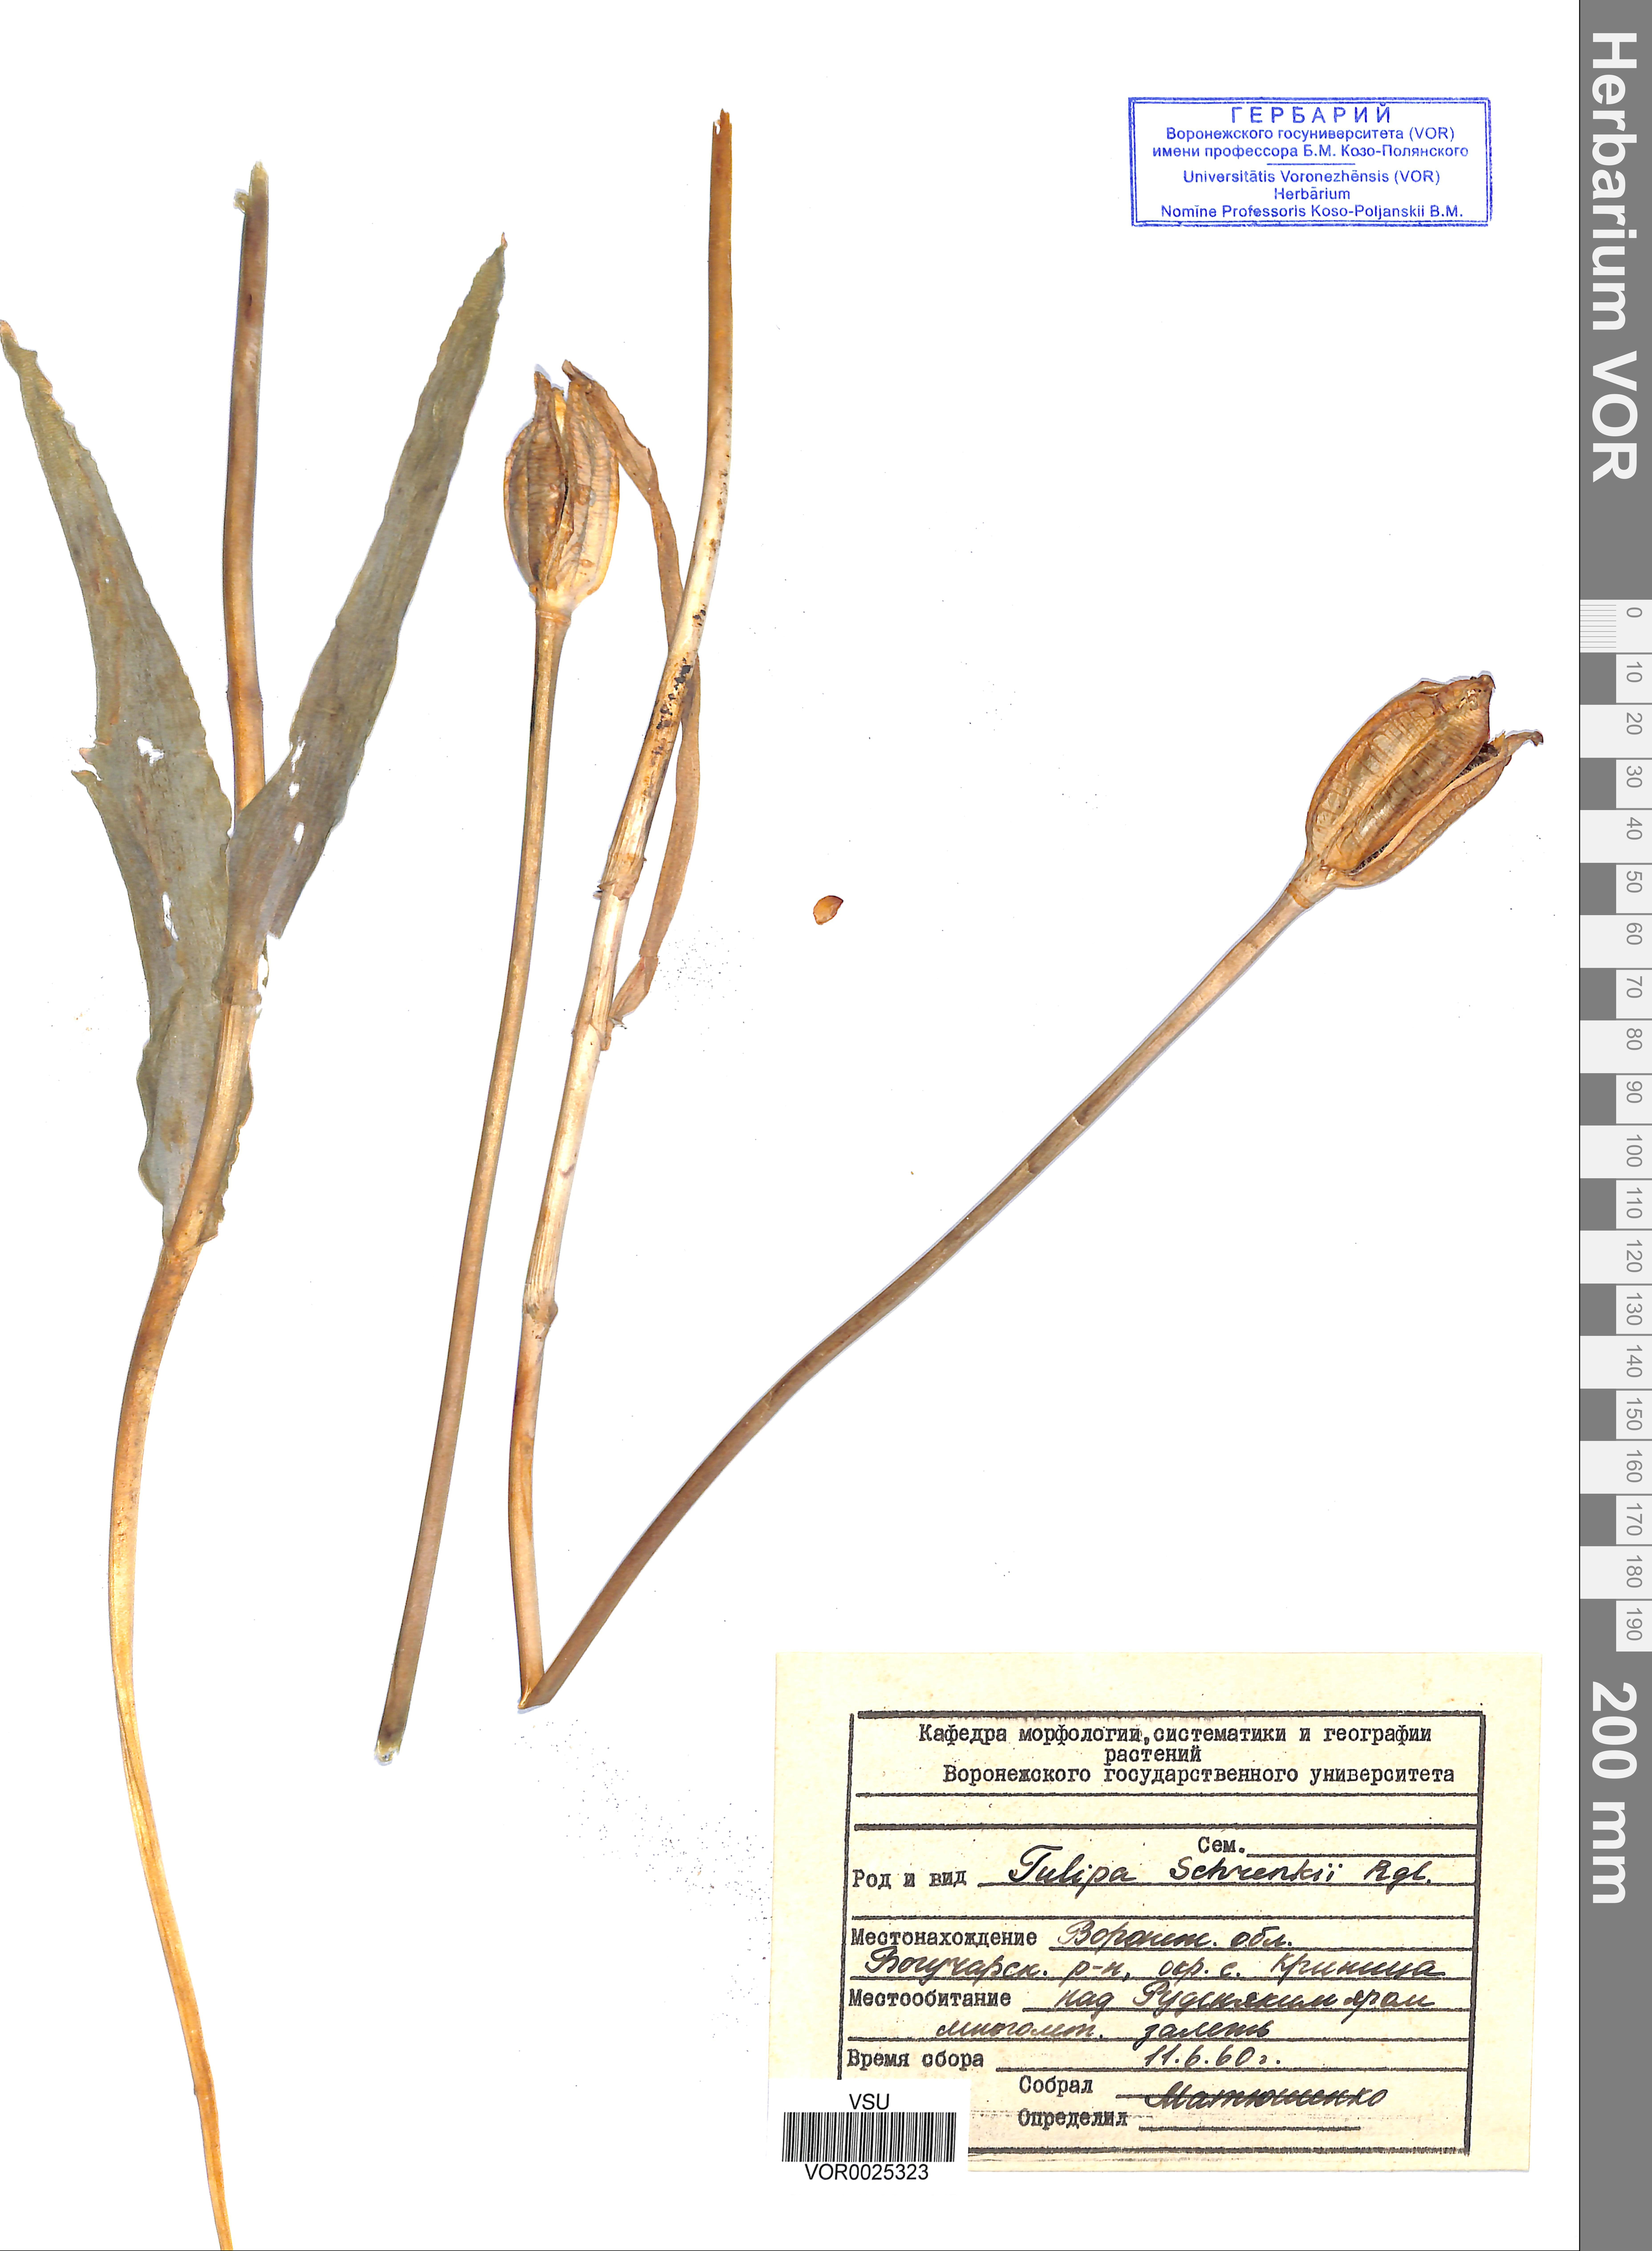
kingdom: Plantae
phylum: Tracheophyta
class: Liliopsida
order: Liliales
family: Liliaceae
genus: Tulipa
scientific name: Tulipa suaveolens
